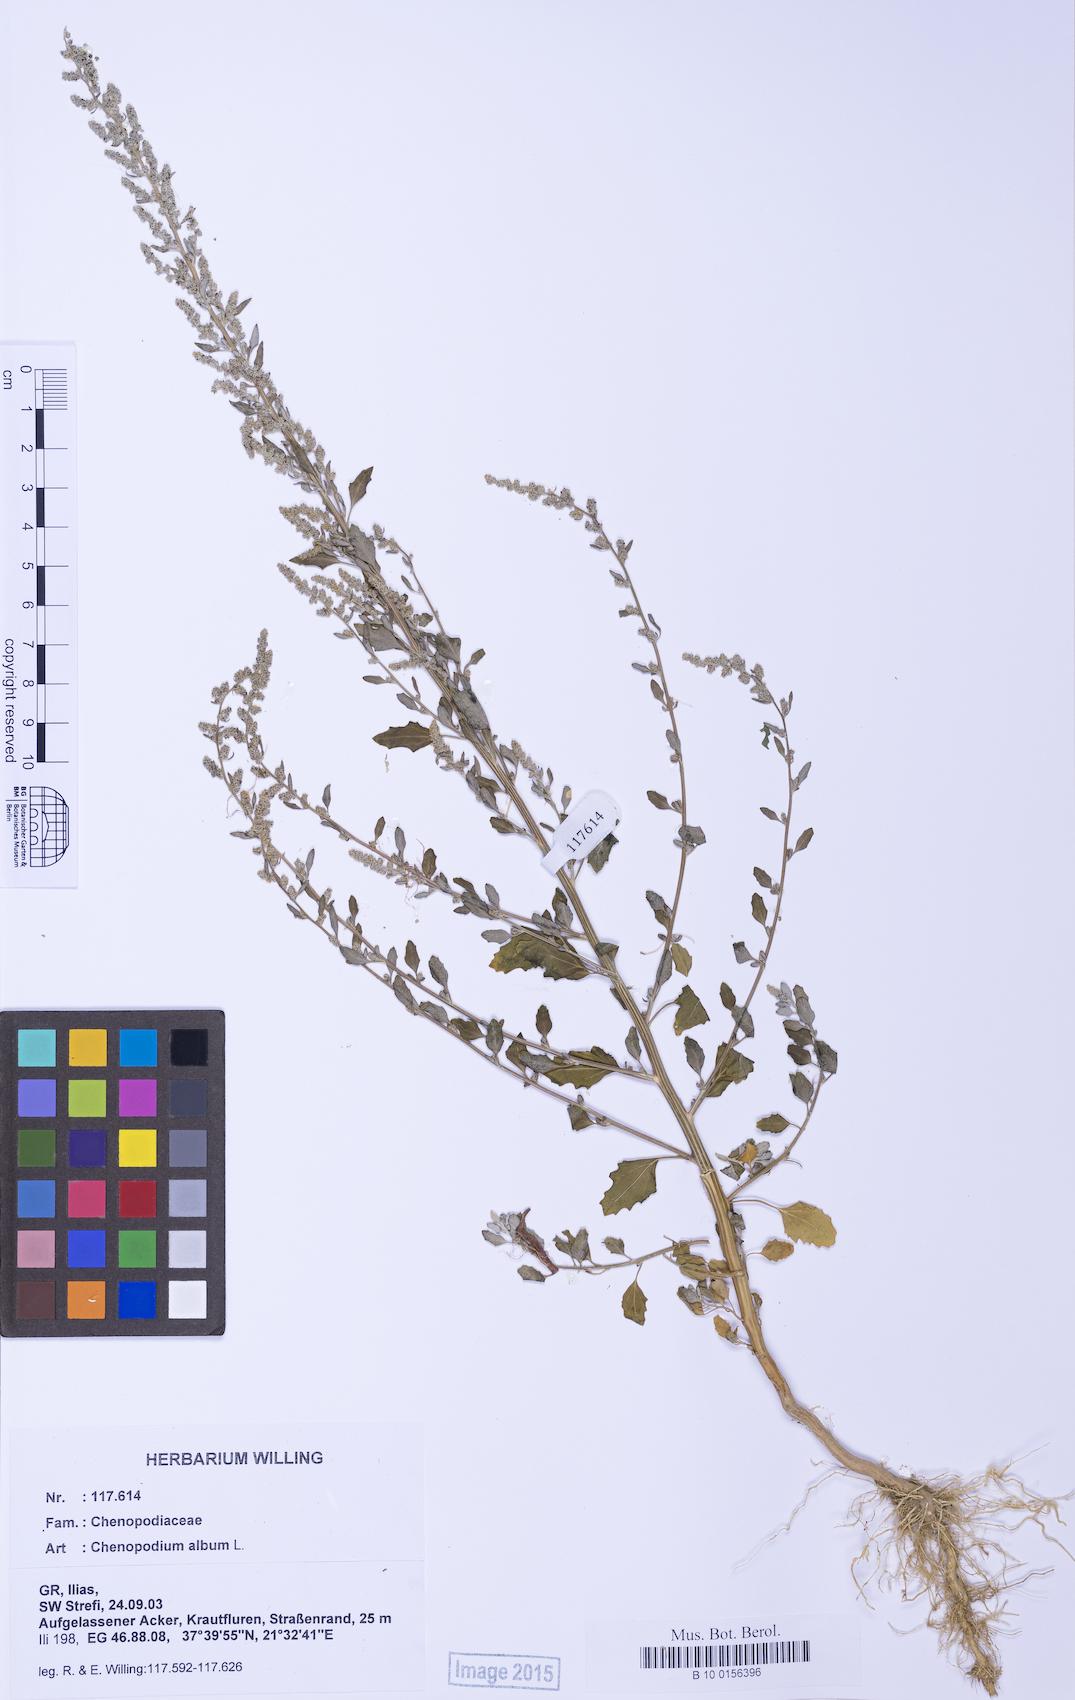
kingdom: Plantae
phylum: Tracheophyta
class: Magnoliopsida
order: Caryophyllales
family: Amaranthaceae
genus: Chenopodium
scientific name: Chenopodium album
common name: Fat-hen
